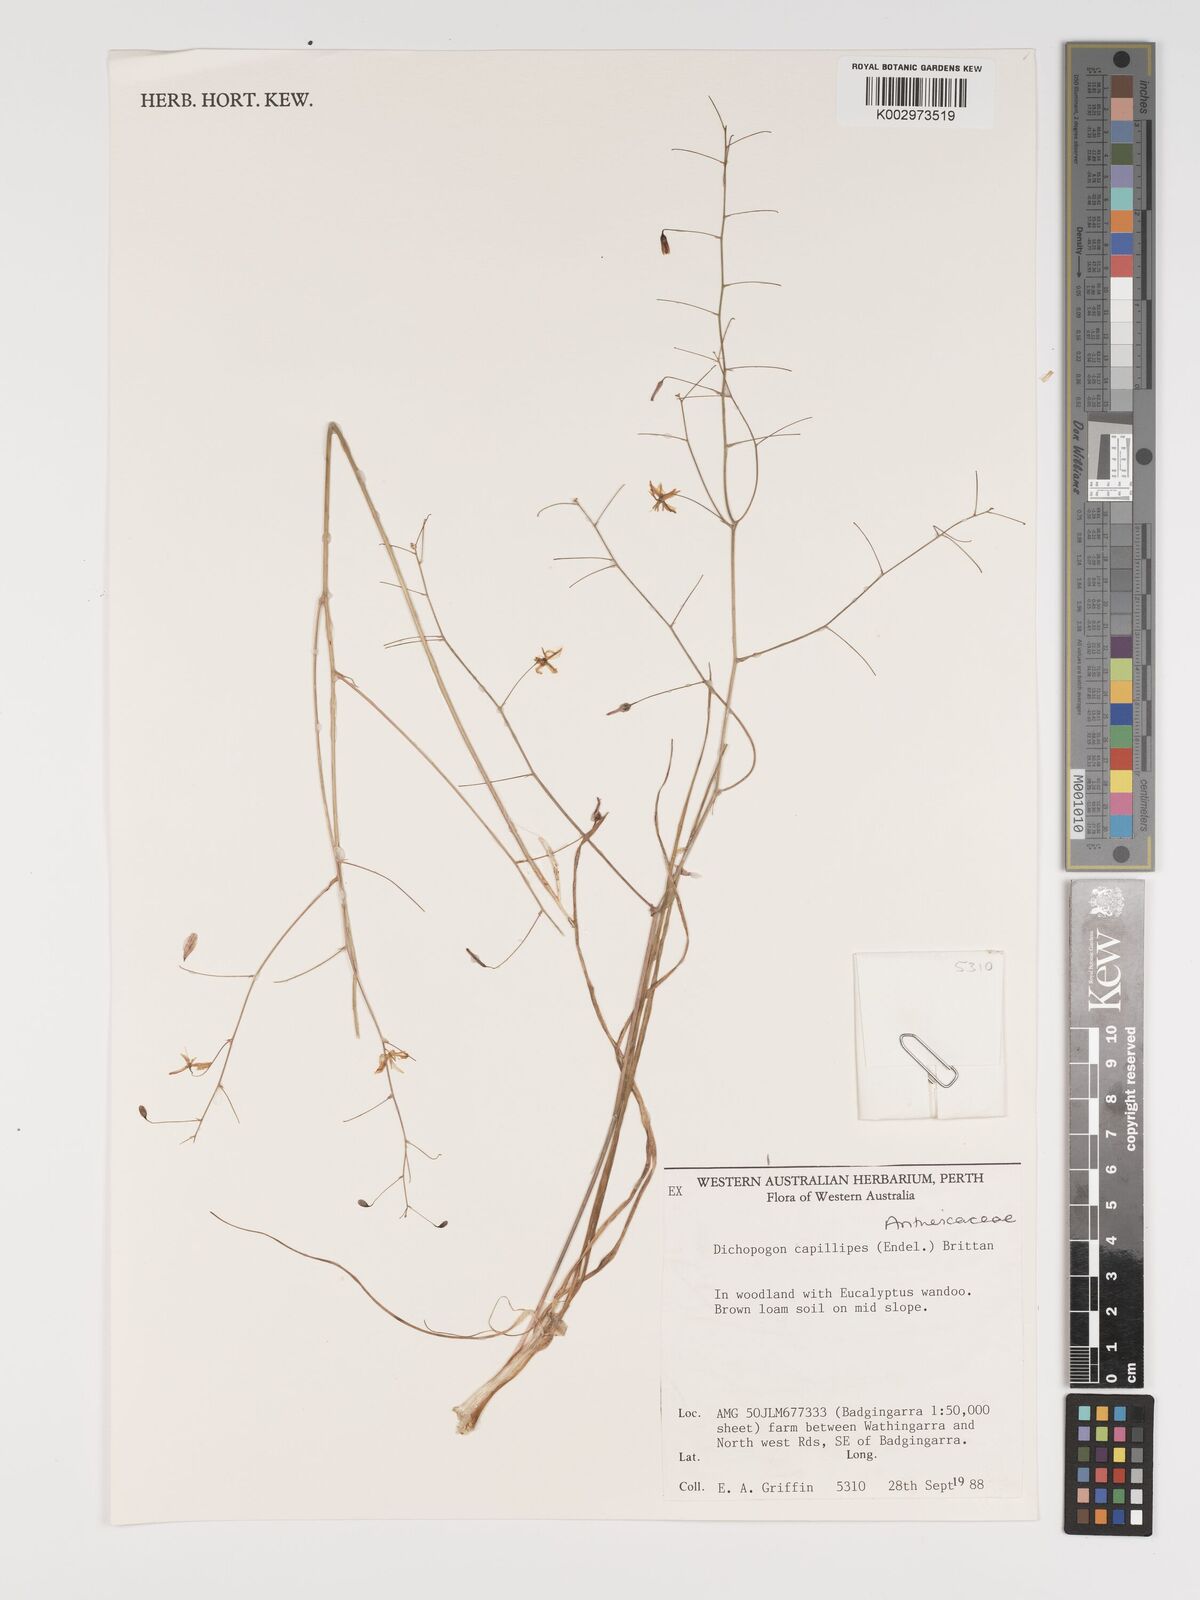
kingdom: Plantae
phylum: Tracheophyta
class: Liliopsida
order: Asparagales
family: Asparagaceae
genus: Dichopogon
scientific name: Dichopogon capillipes
